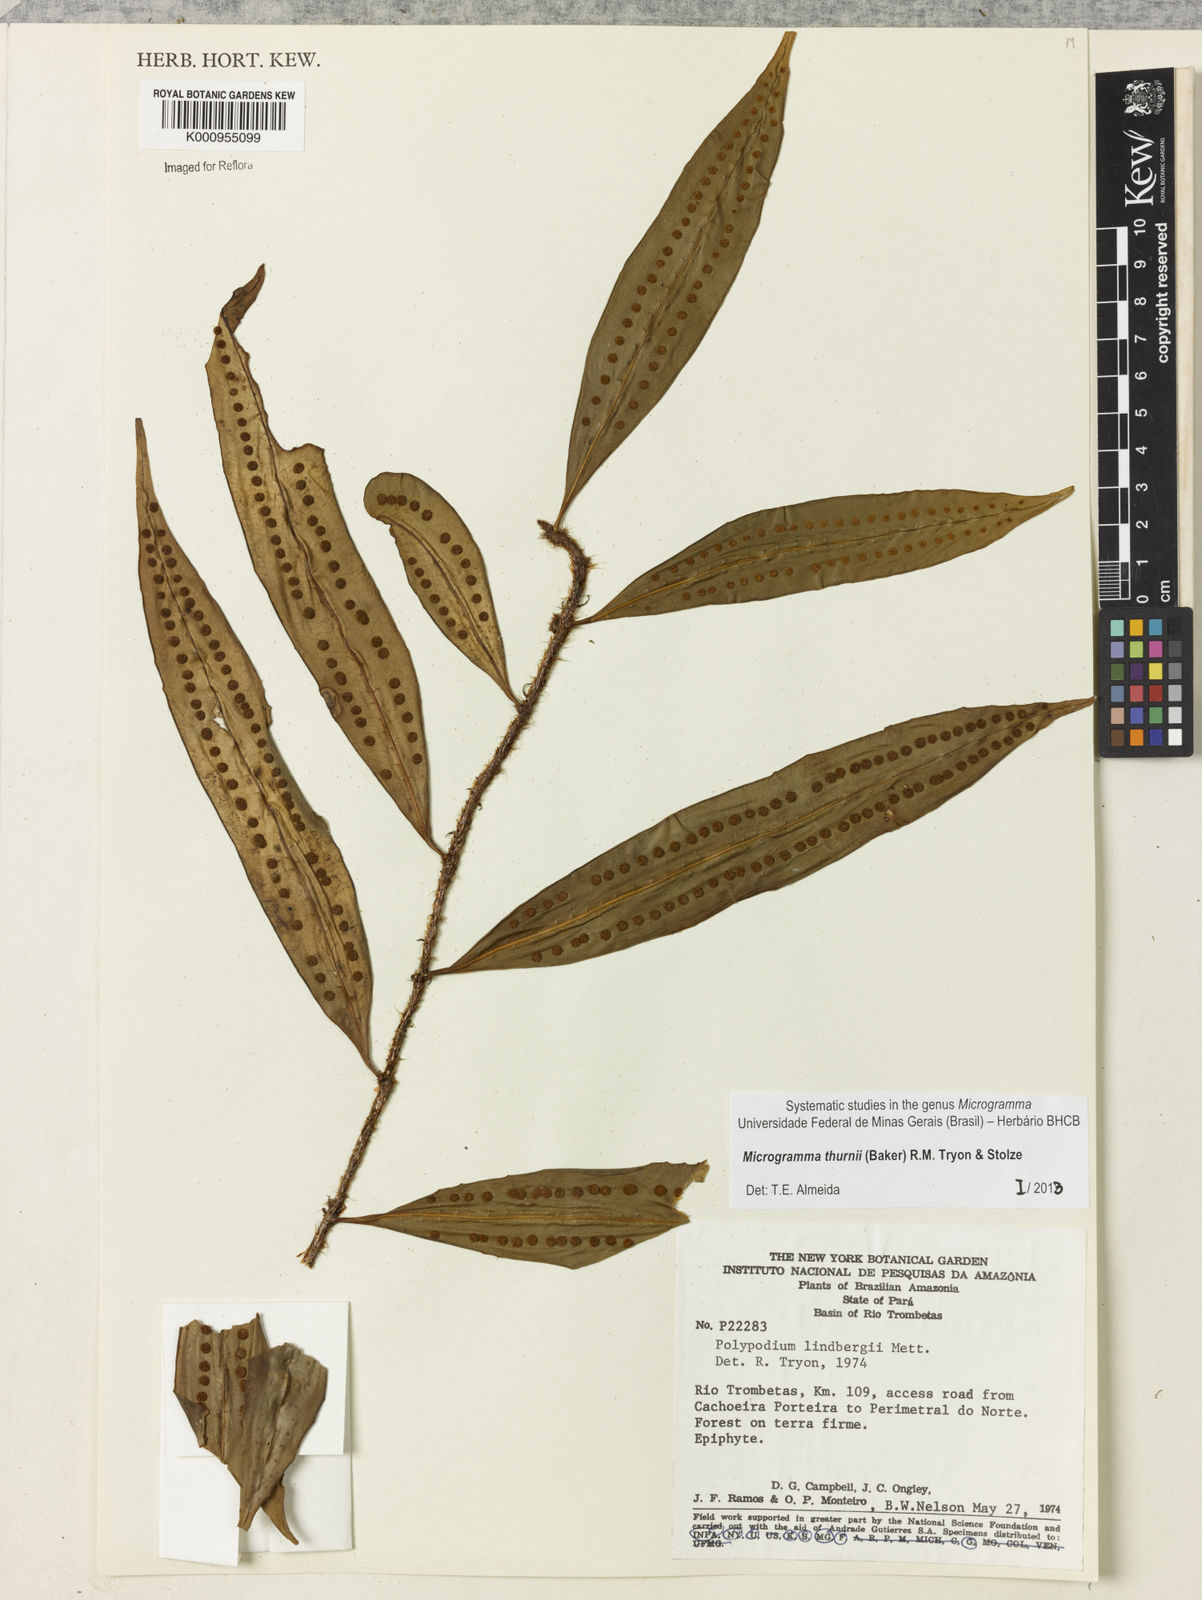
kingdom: Plantae
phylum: Tracheophyta
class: Polypodiopsida
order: Polypodiales
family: Polypodiaceae
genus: Microgramma
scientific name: Microgramma thurnii
